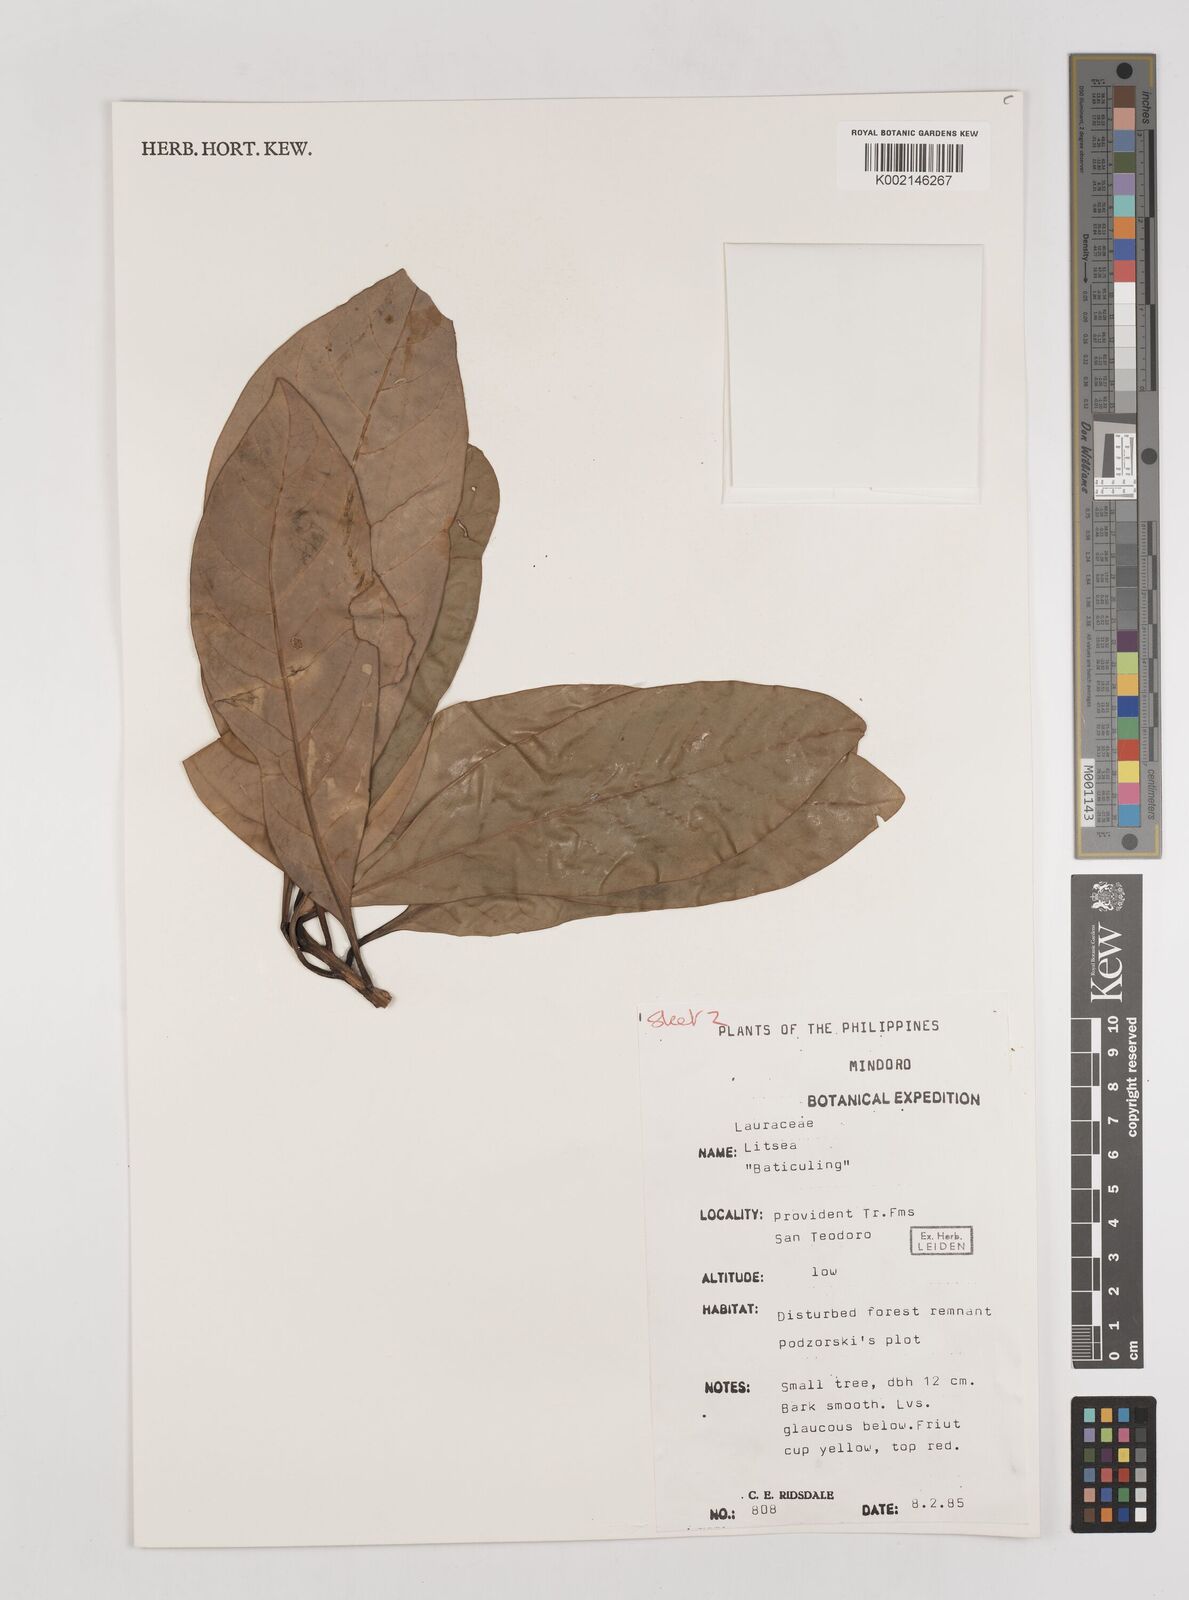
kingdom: Plantae
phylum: Tracheophyta
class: Magnoliopsida
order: Laurales
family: Lauraceae
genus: Litsea
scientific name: Litsea
